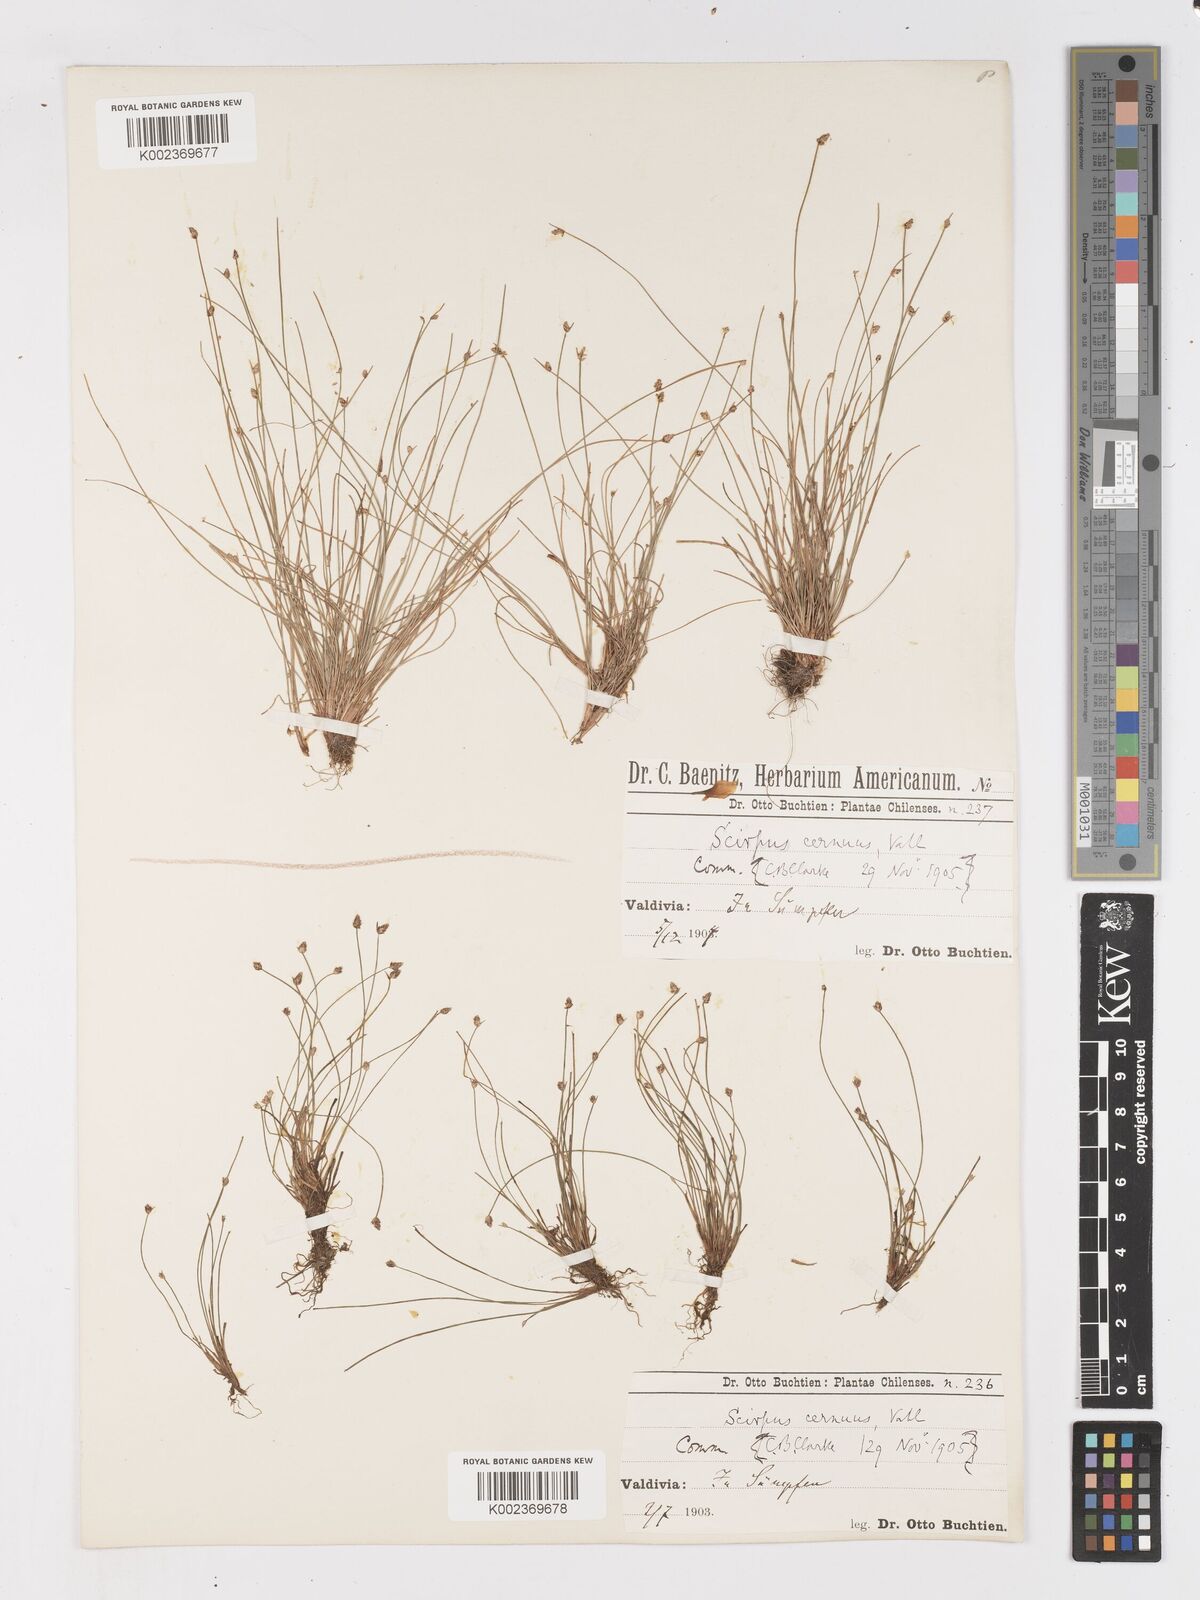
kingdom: Plantae
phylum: Tracheophyta
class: Liliopsida
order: Poales
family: Cyperaceae
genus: Isolepis
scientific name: Isolepis cernua
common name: Slender club-rush
